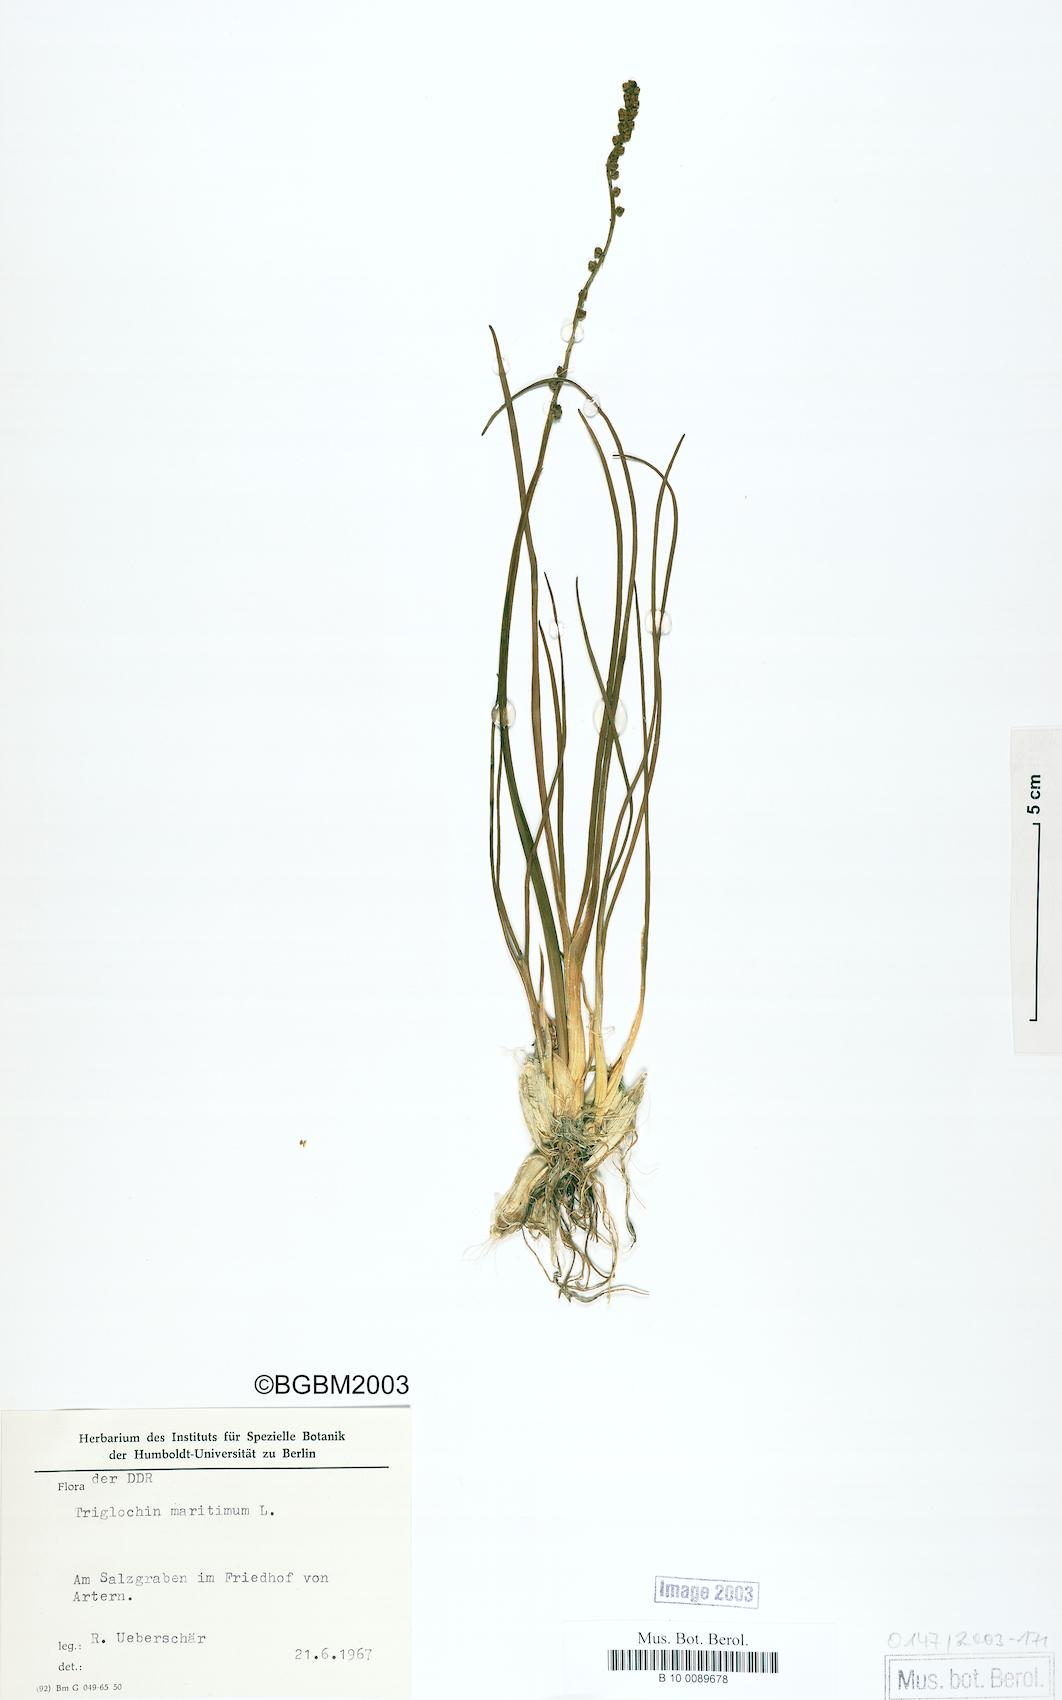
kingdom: Plantae
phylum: Tracheophyta
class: Liliopsida
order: Alismatales
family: Juncaginaceae
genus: Triglochin
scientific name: Triglochin maritima
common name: Sea arrowgrass
